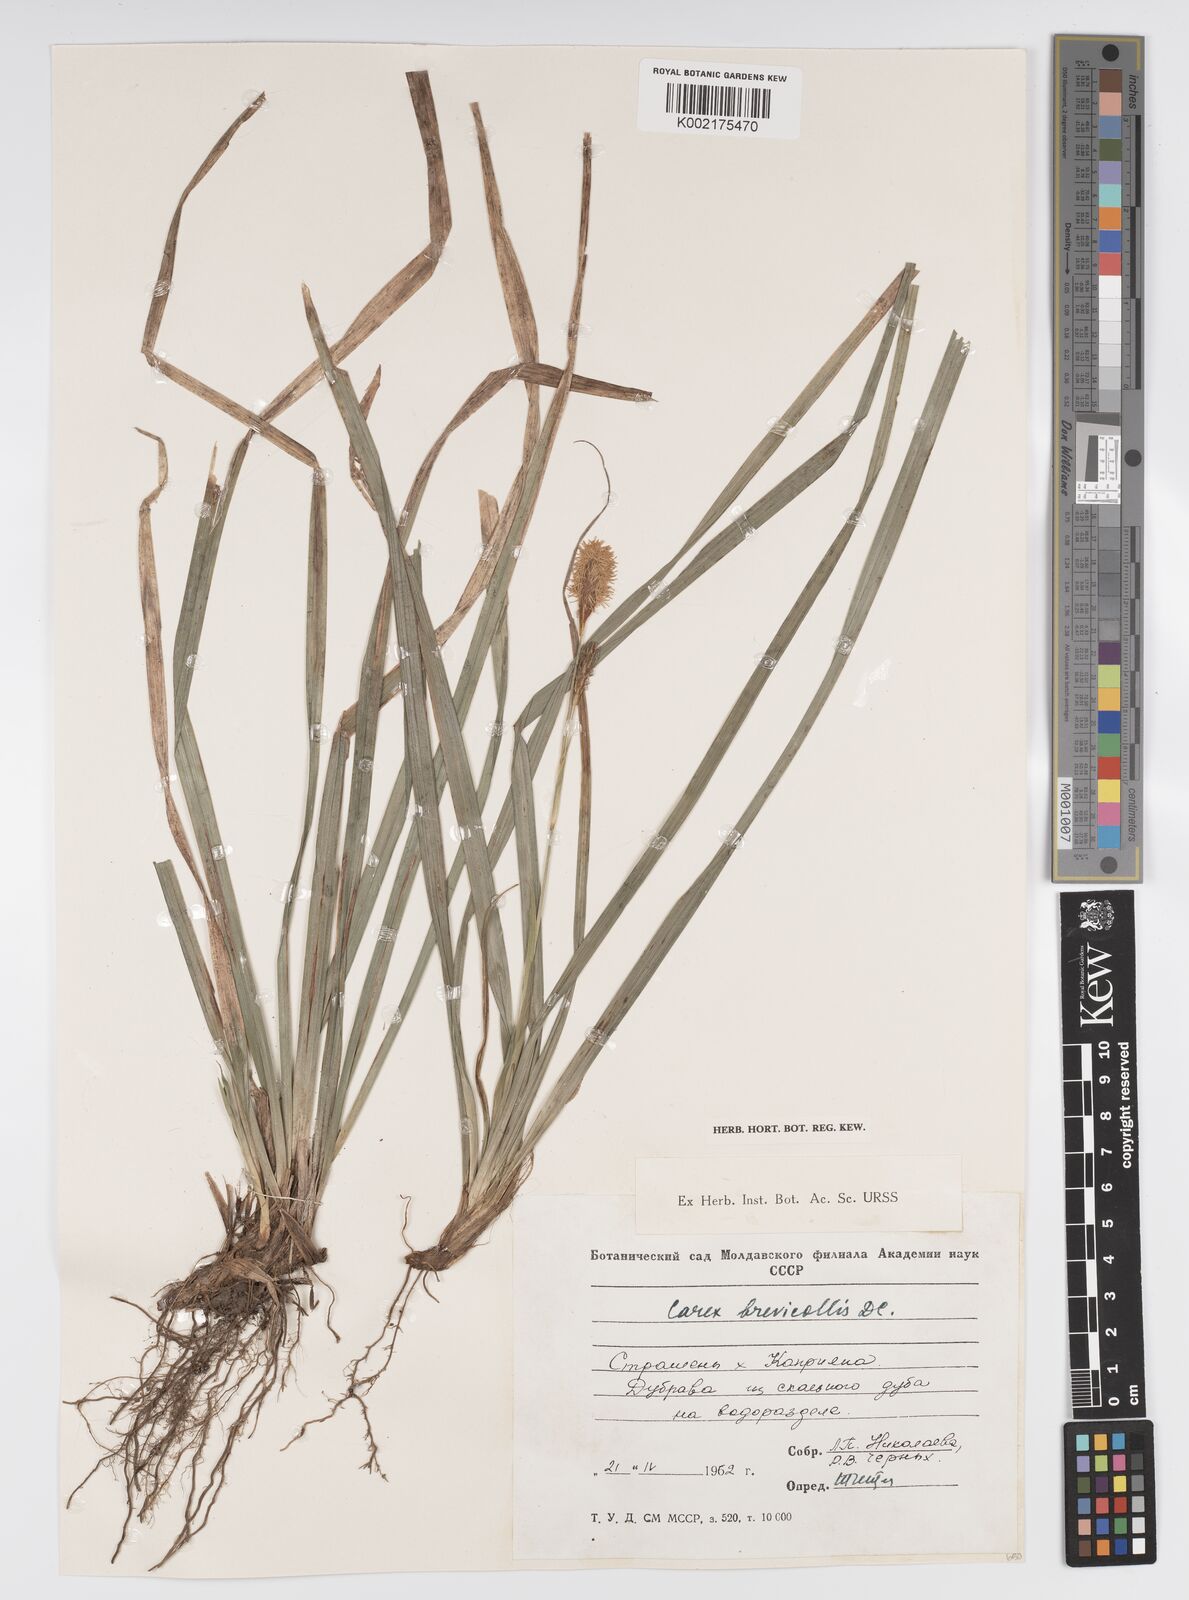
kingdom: Plantae
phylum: Tracheophyta
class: Liliopsida
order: Poales
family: Cyperaceae
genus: Carex
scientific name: Carex brevicollis
